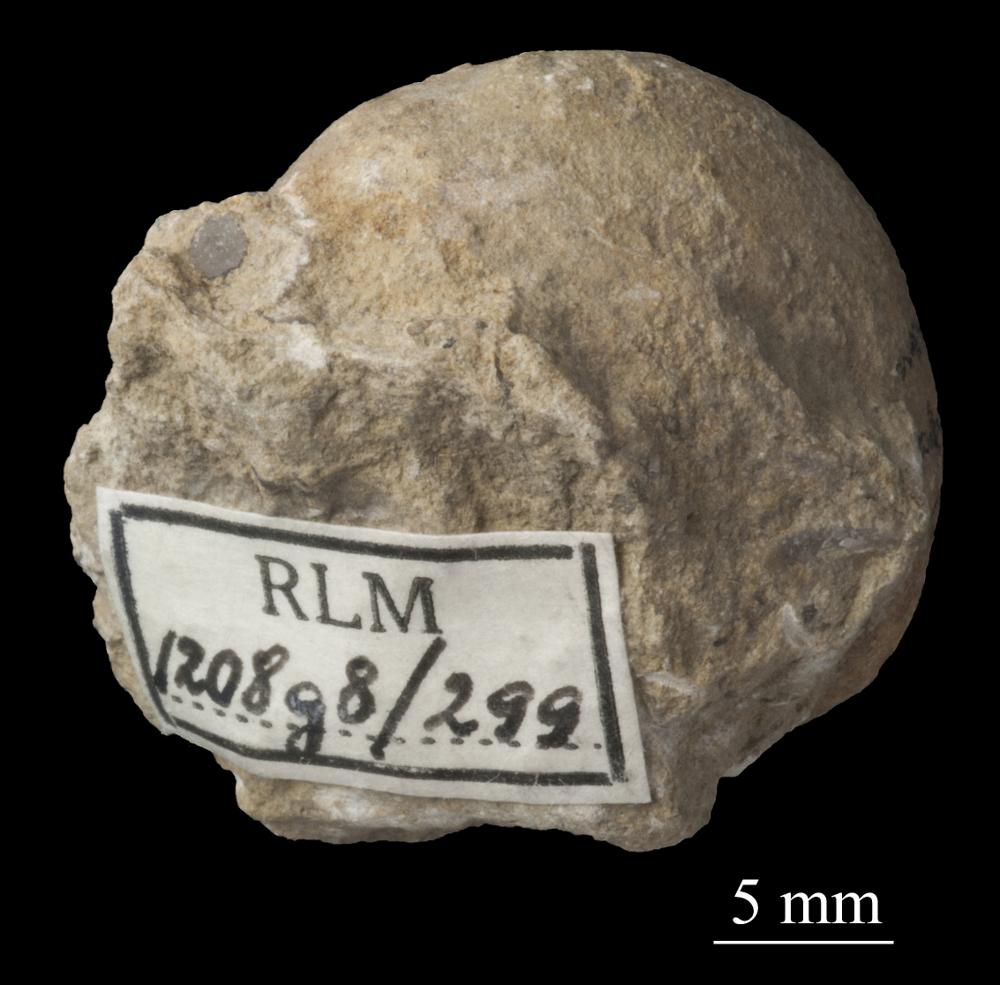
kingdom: Animalia
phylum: Mollusca
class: Gastropoda
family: Bellerophontidae
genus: Bellerophon
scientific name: Bellerophon
